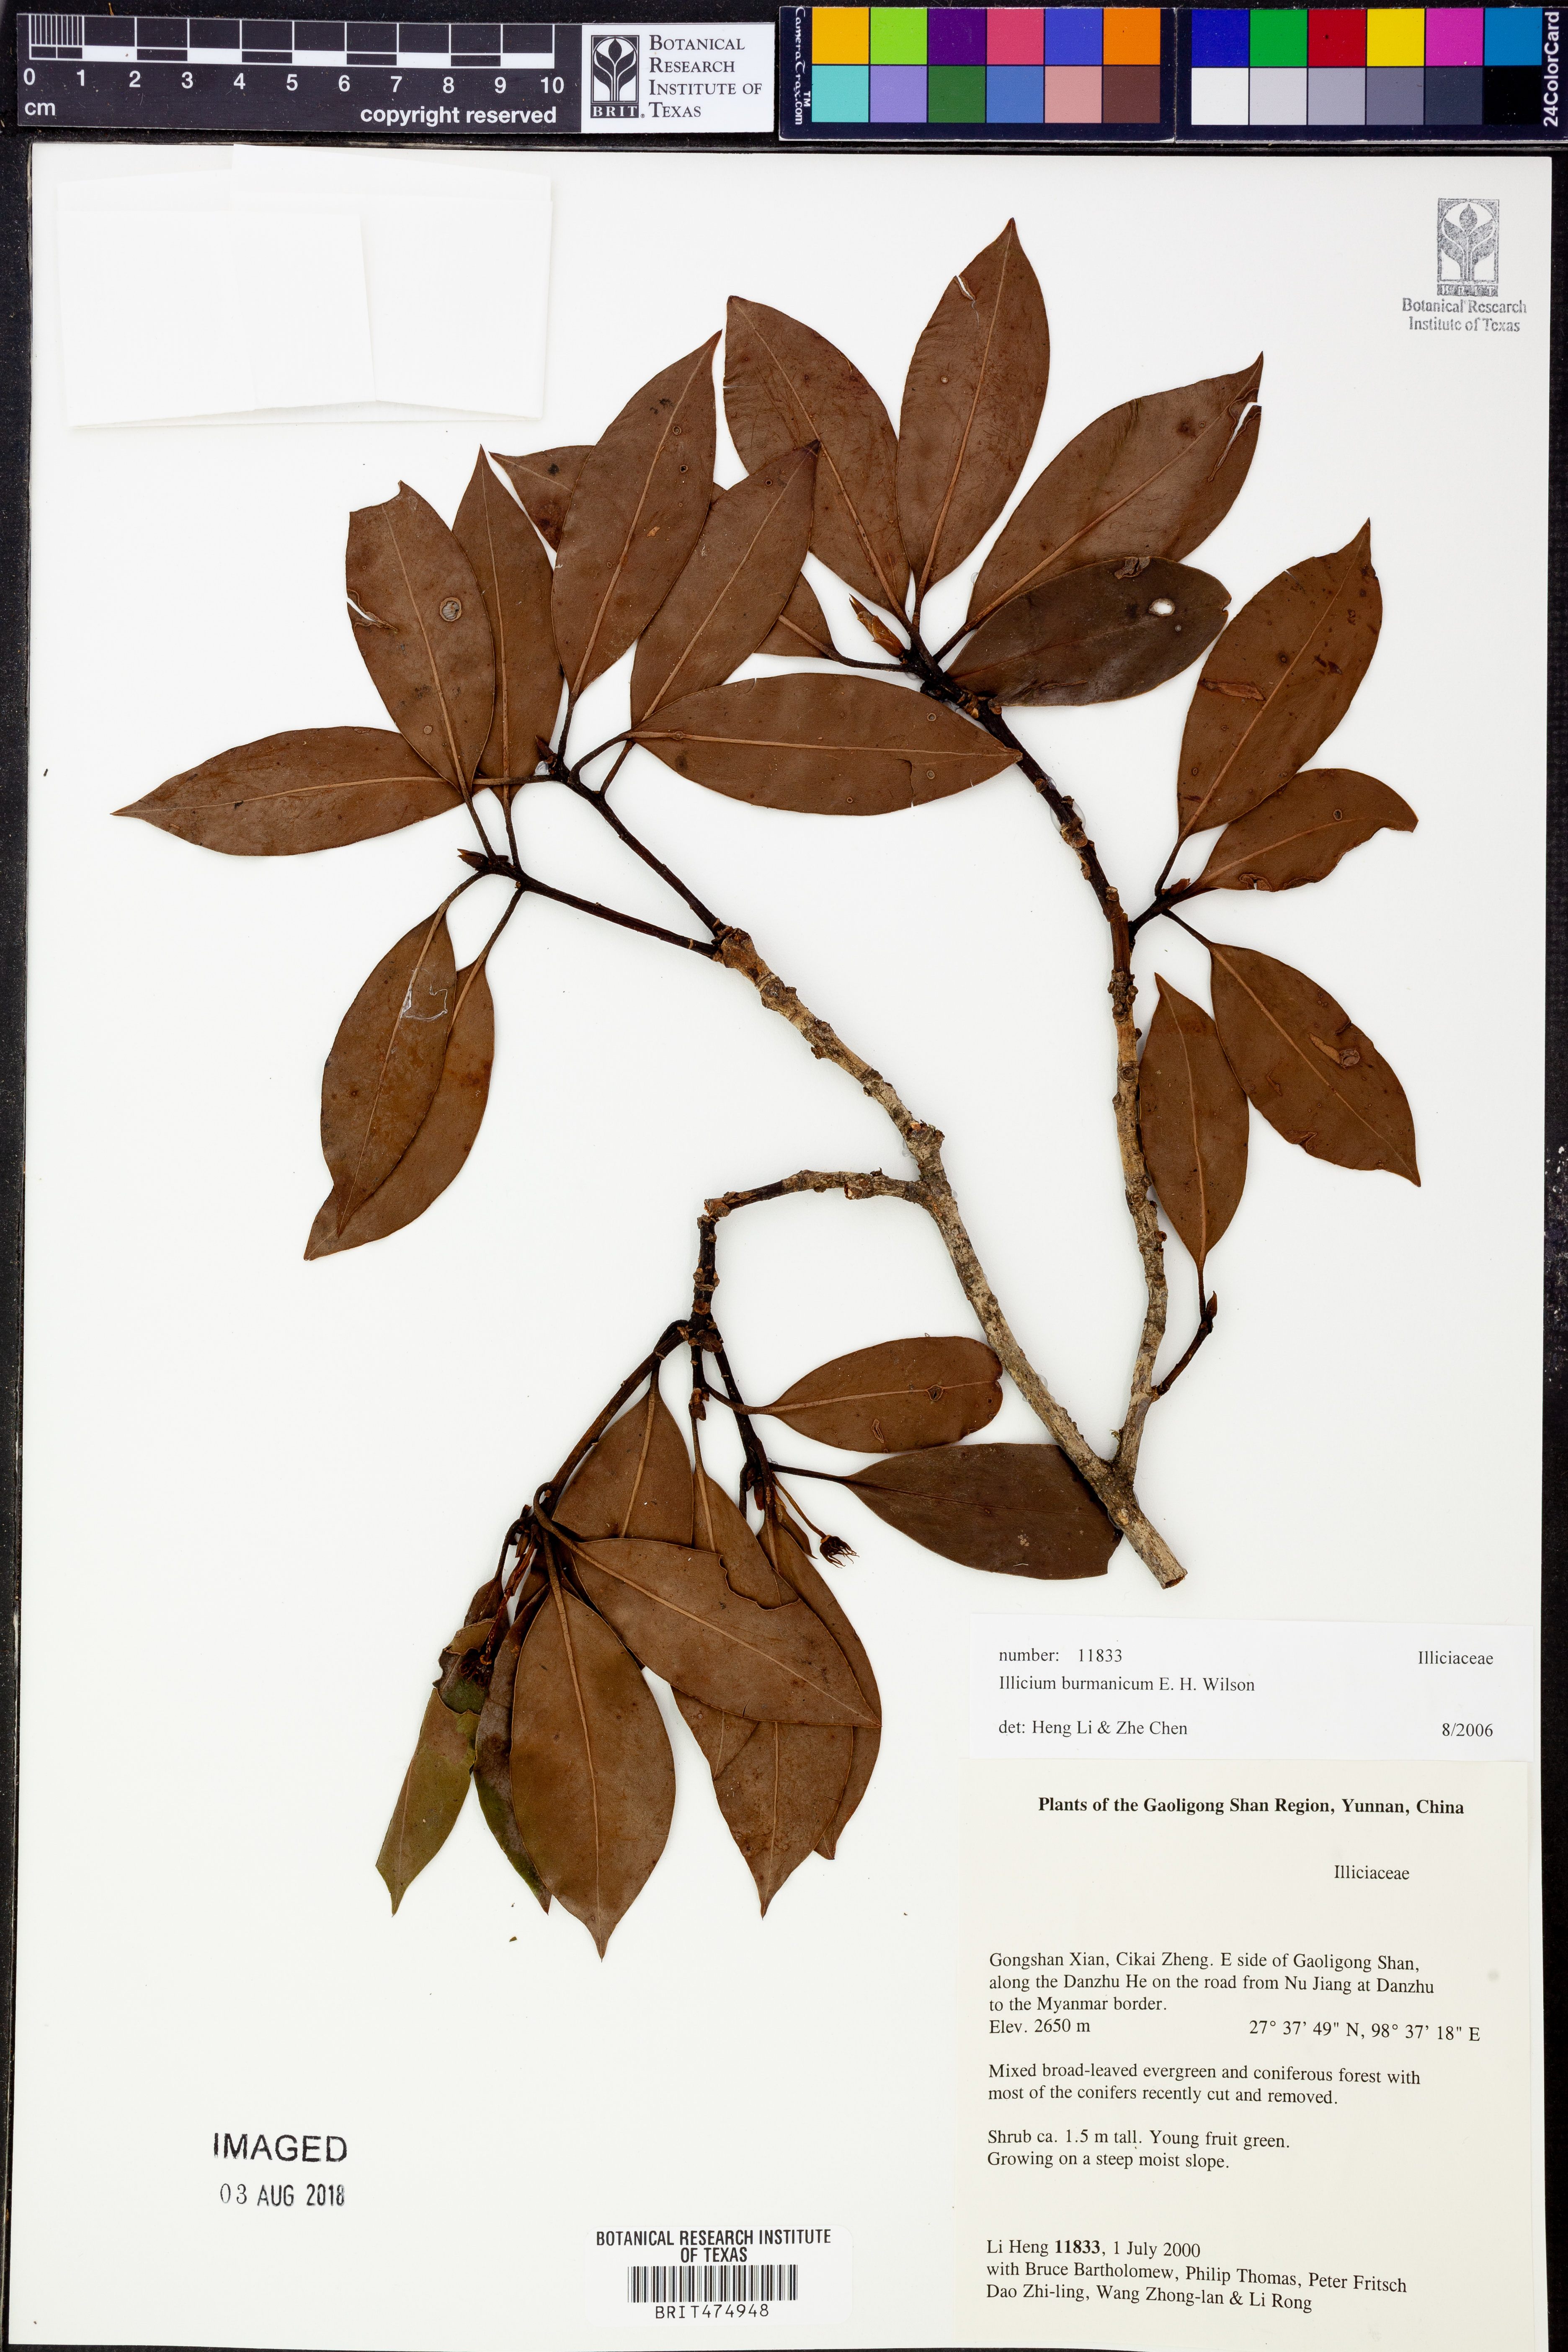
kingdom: Plantae
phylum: Tracheophyta
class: Magnoliopsida
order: Austrobaileyales
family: Schisandraceae
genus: Illicium
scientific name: Illicium burmanicum
